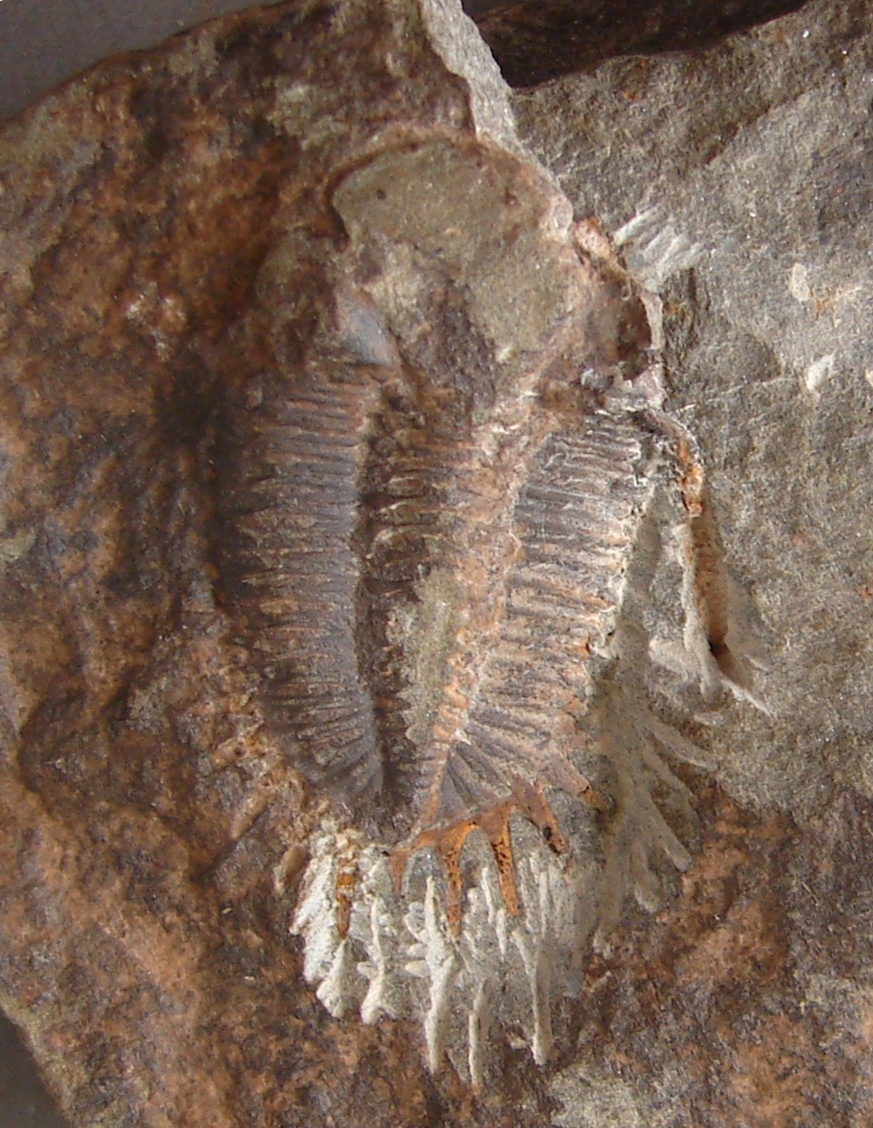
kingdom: Animalia
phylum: Arthropoda
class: Trilobita
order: Phacopida
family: Acastidae
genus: Tolkienia
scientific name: Tolkienia wiltzensis
